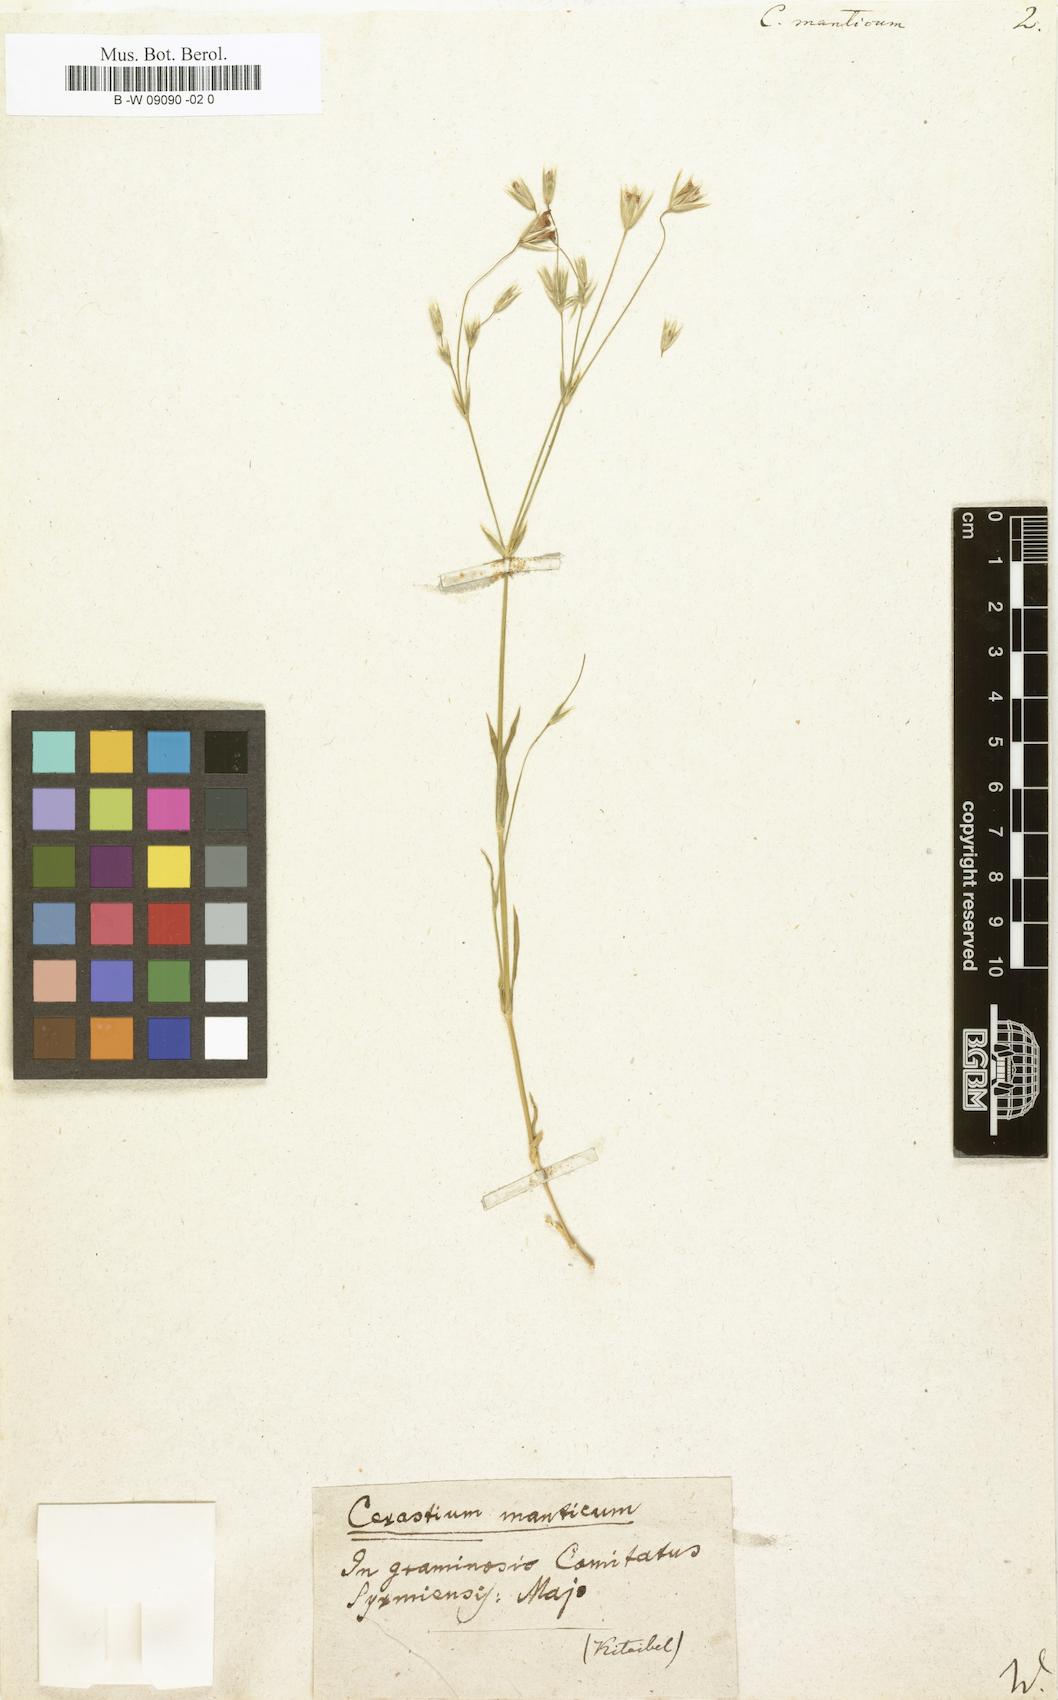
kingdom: Plantae
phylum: Tracheophyta
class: Magnoliopsida
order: Caryophyllales
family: Caryophyllaceae
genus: Moenchia
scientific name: Moenchia mantica
